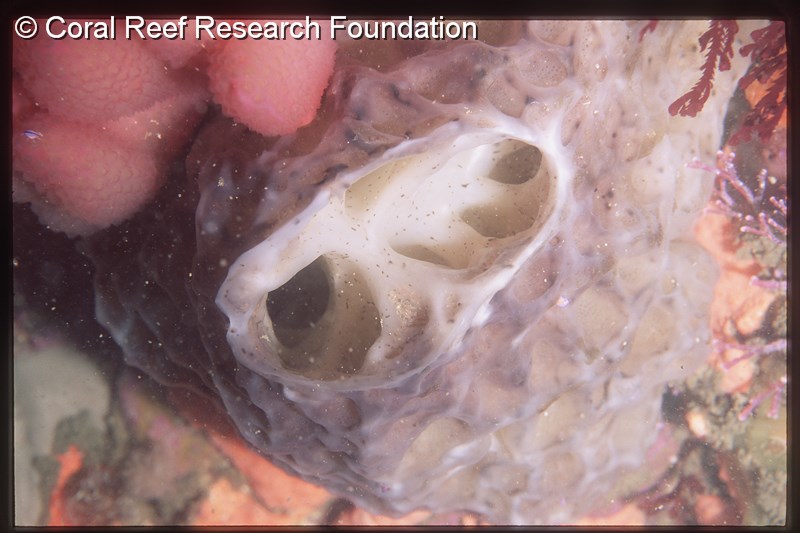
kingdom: Animalia
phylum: Chordata
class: Ascidiacea
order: Aplousobranchia
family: Holozoidae
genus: Hypodistoma
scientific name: Hypodistoma
